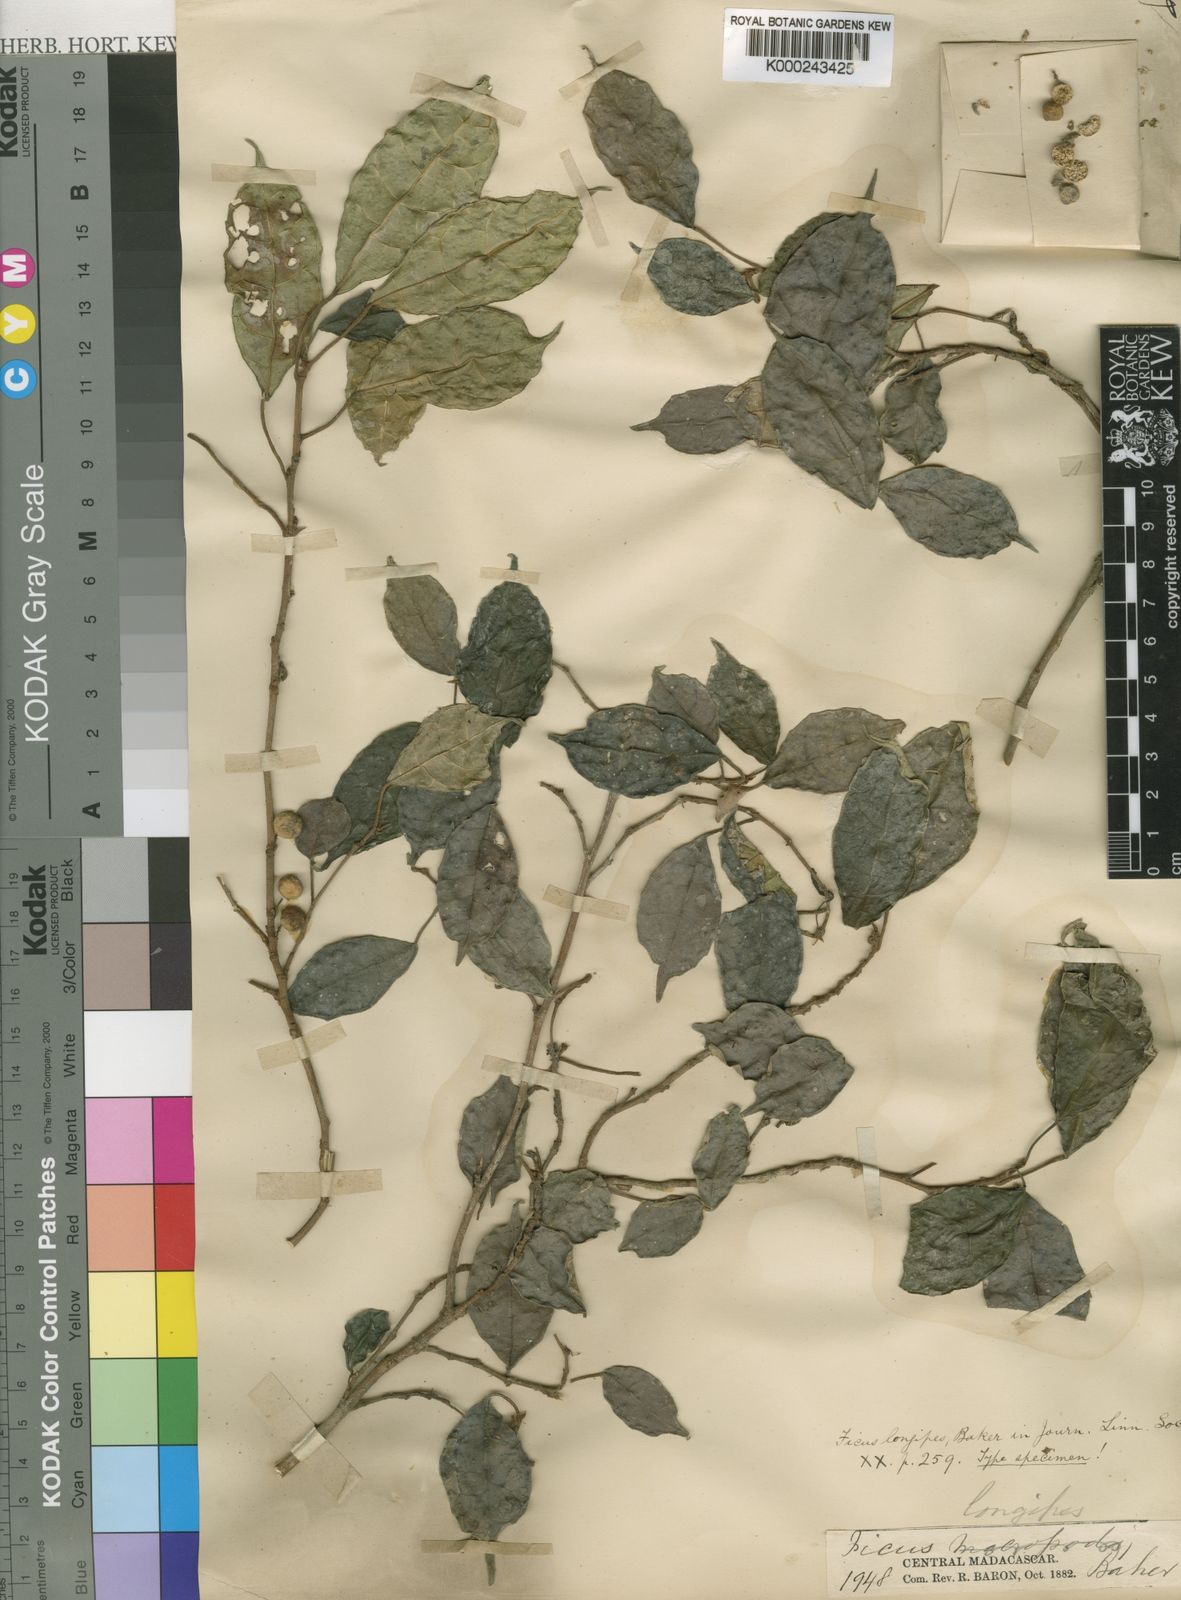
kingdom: Plantae
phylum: Tracheophyta
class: Magnoliopsida
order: Rosales
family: Moraceae
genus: Ficus
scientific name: Ficus exasperata
